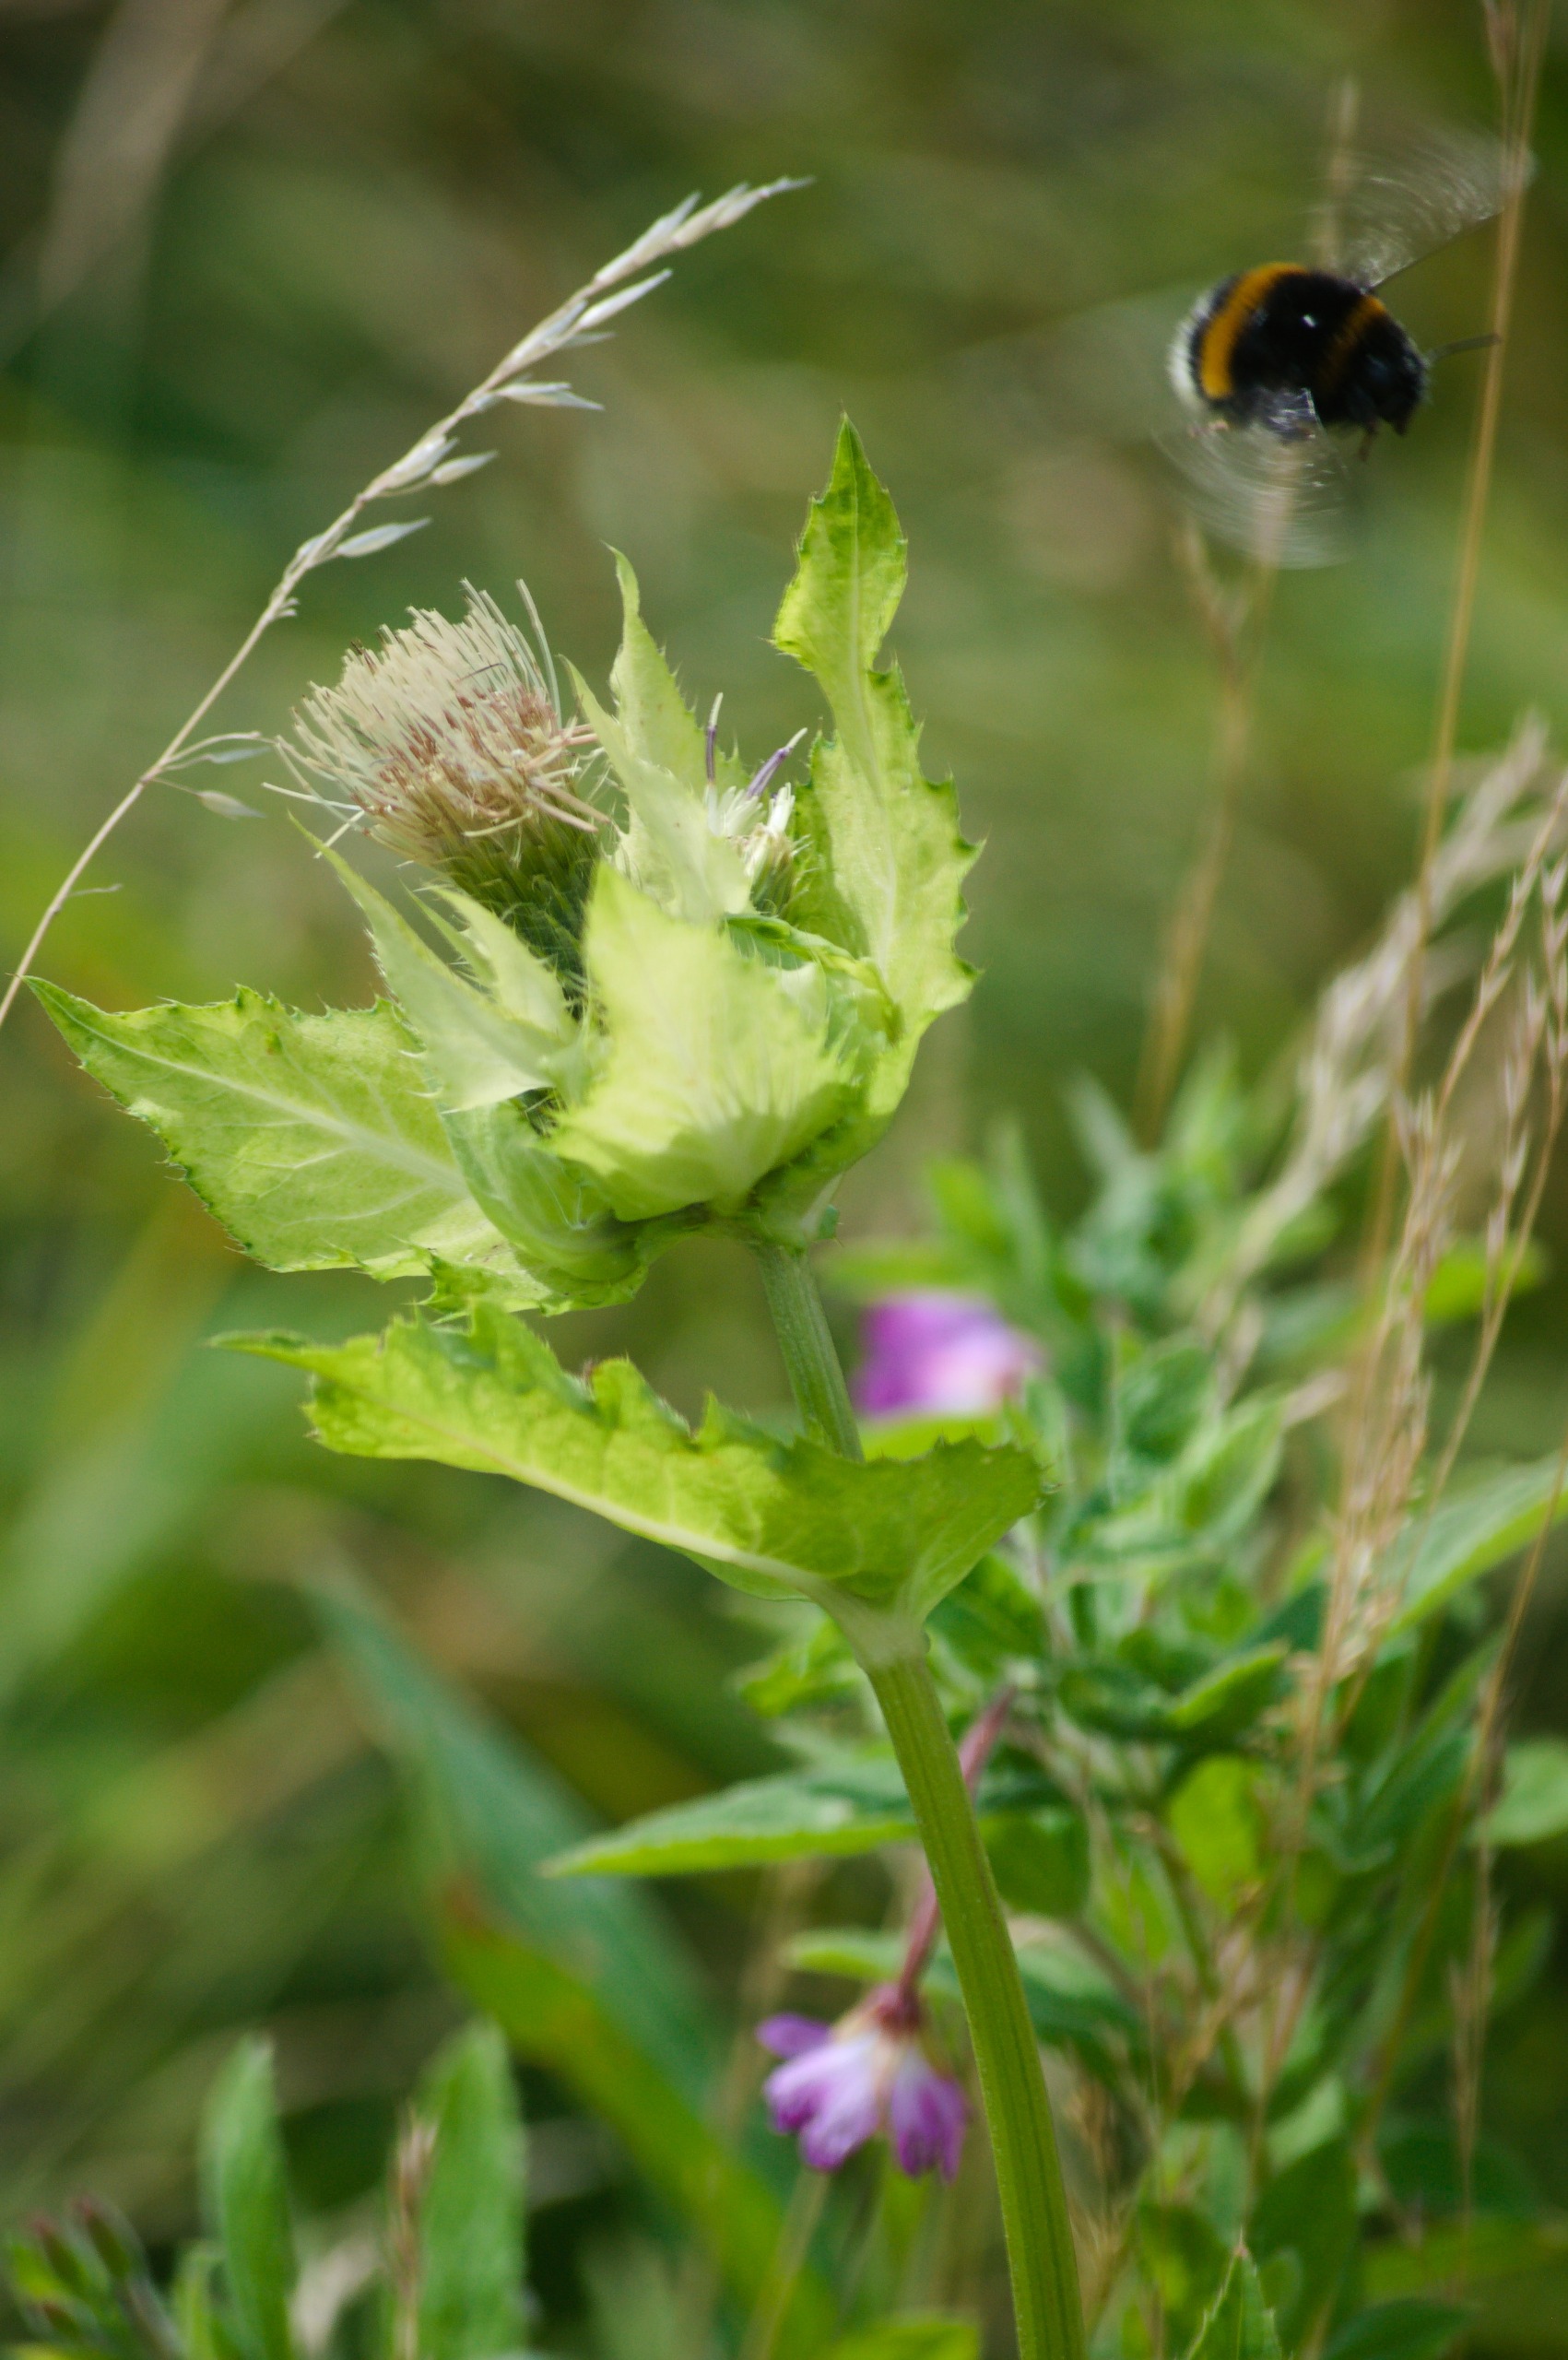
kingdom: Plantae
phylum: Tracheophyta
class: Magnoliopsida
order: Asterales
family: Asteraceae
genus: Cirsium
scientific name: Cirsium oleraceum
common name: Kål-tidsel
